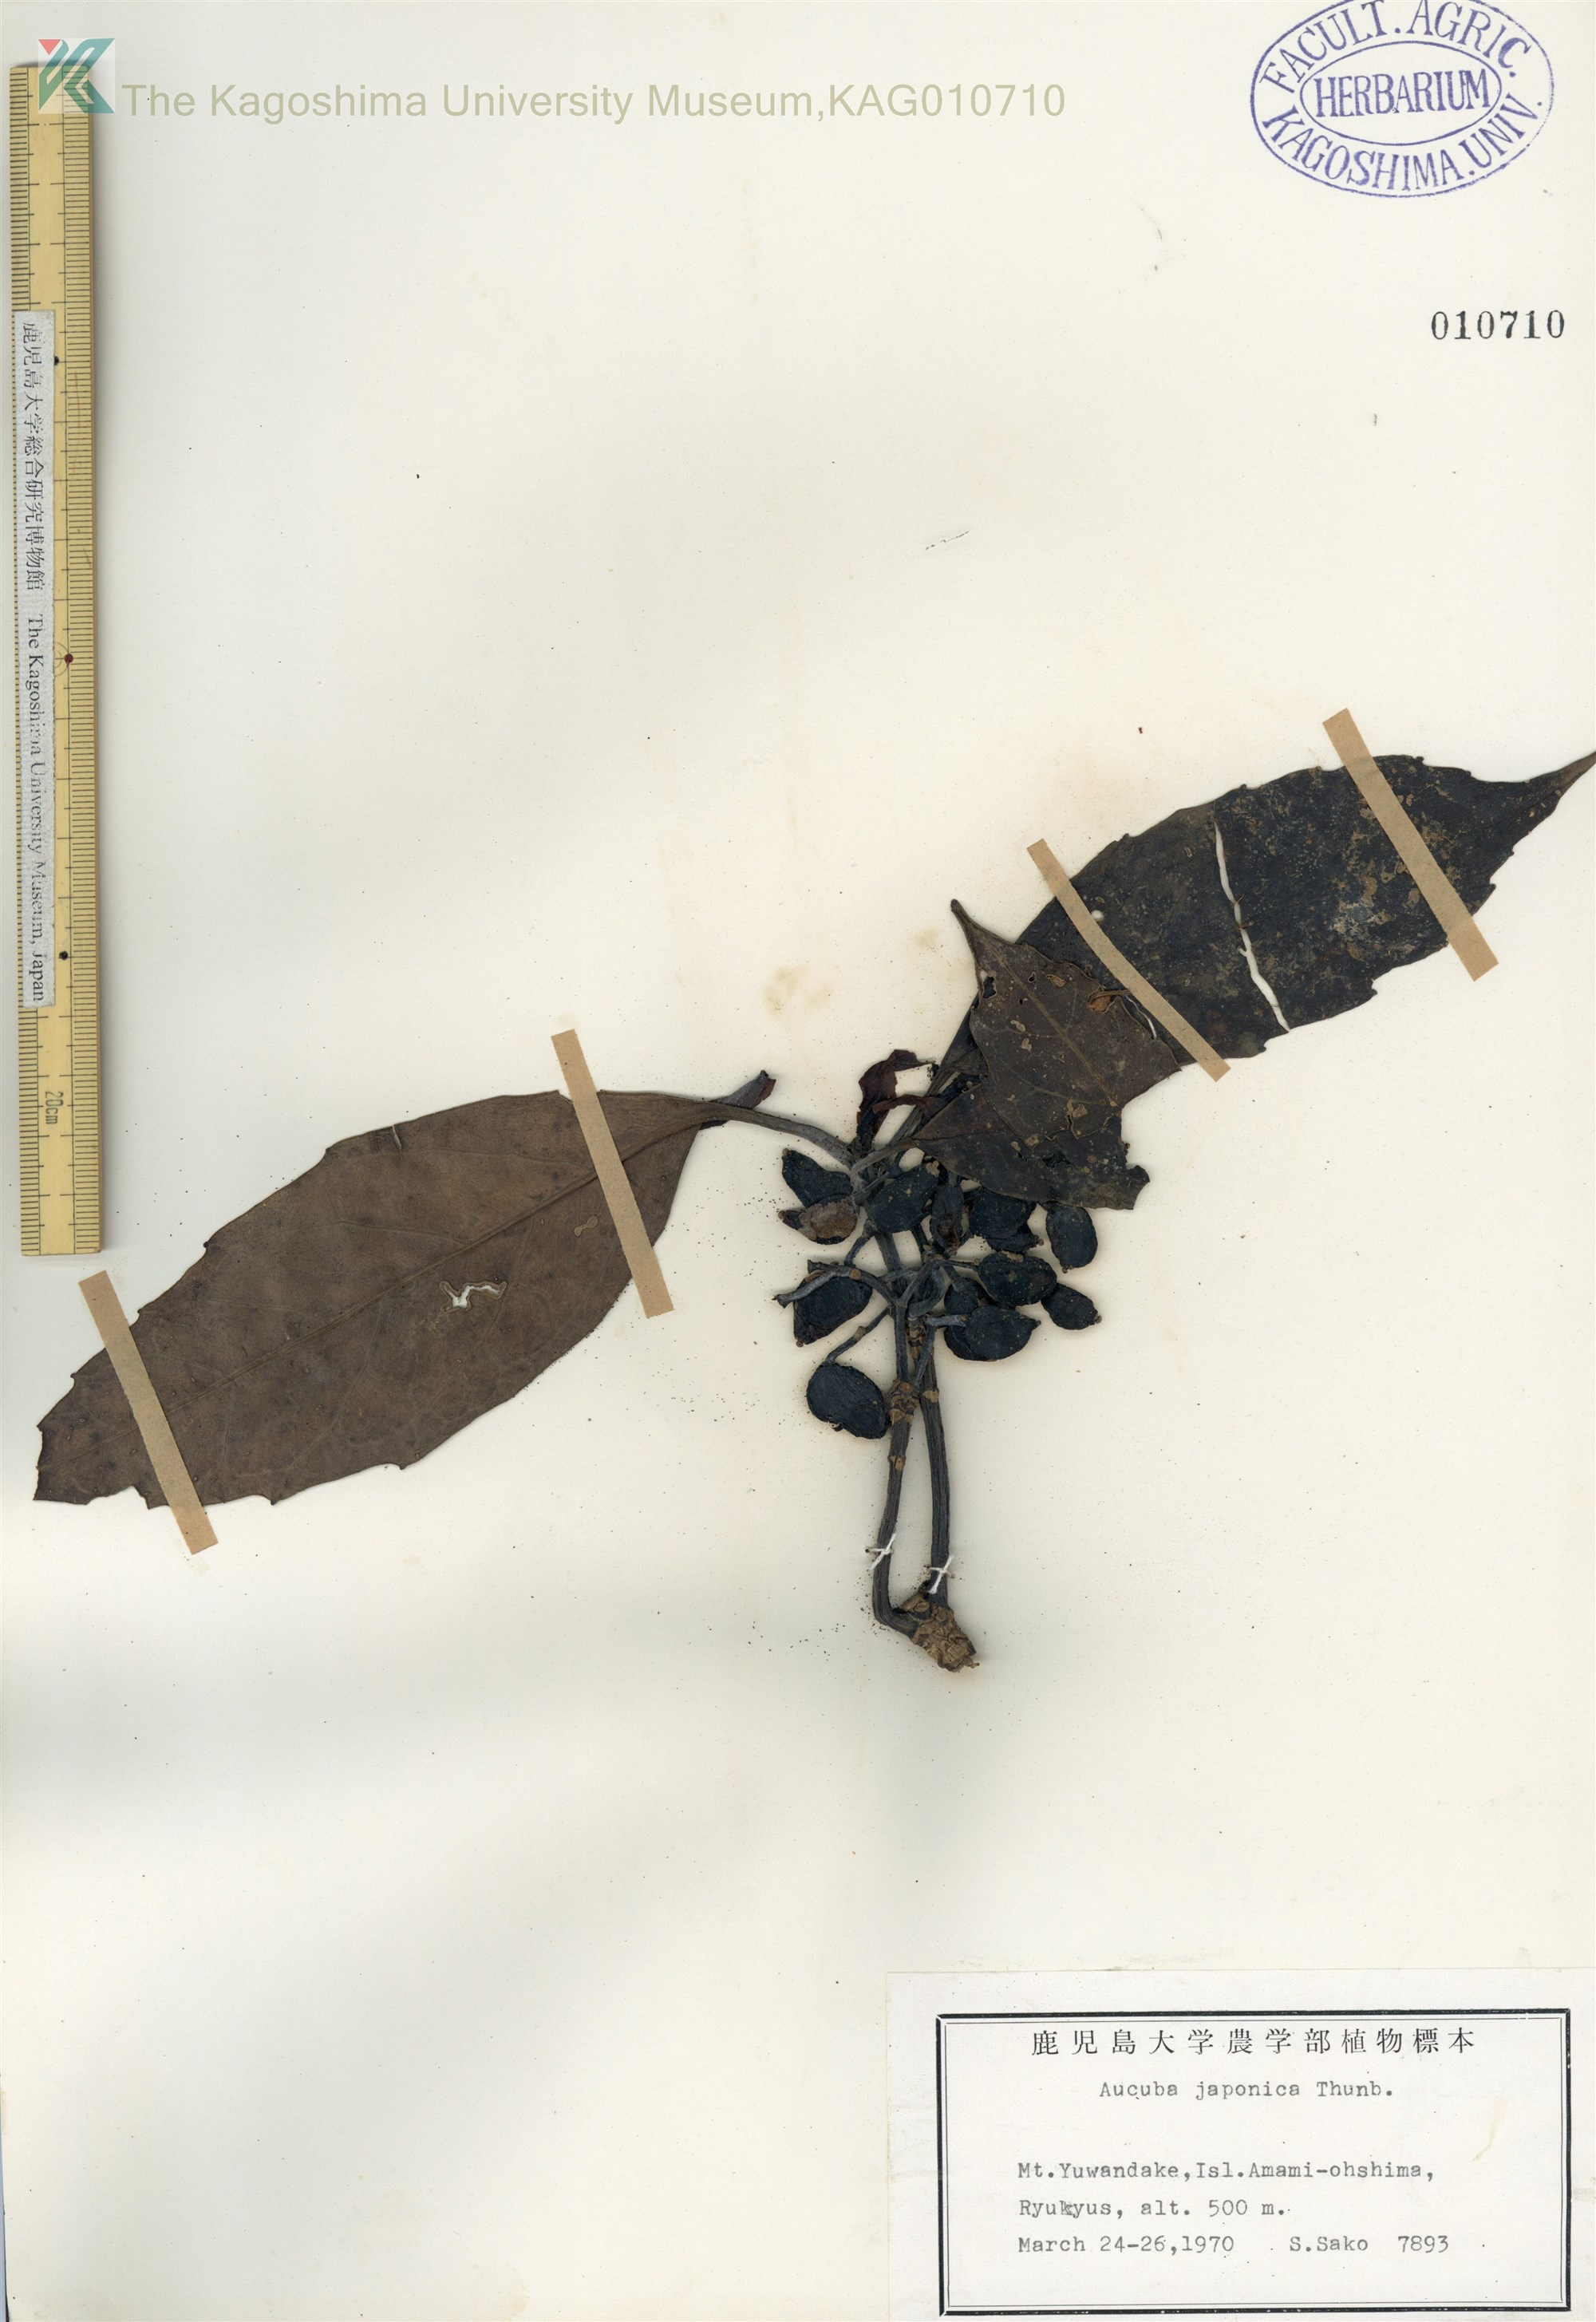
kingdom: Plantae
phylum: Tracheophyta
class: Magnoliopsida
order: Garryales
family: Garryaceae
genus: Aucuba
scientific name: Aucuba japonica
